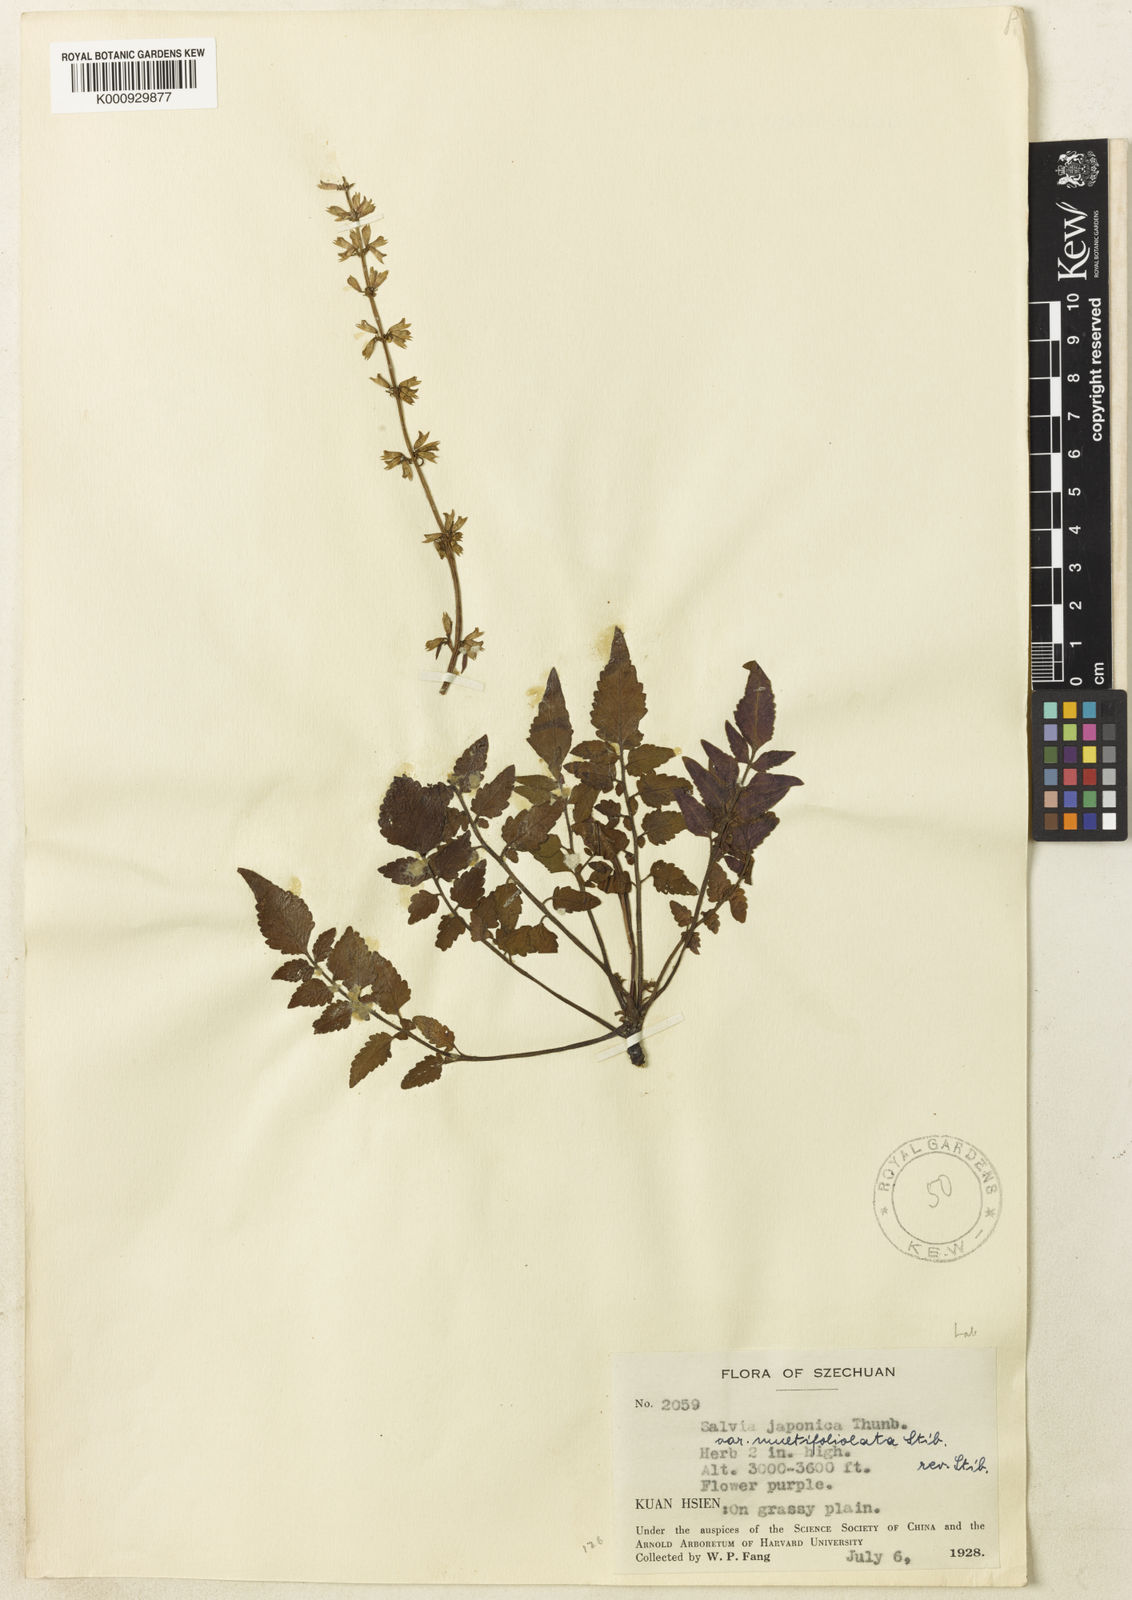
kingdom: Plantae
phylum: Tracheophyta
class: Magnoliopsida
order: Lamiales
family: Lamiaceae
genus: Salvia
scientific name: Salvia japonica
